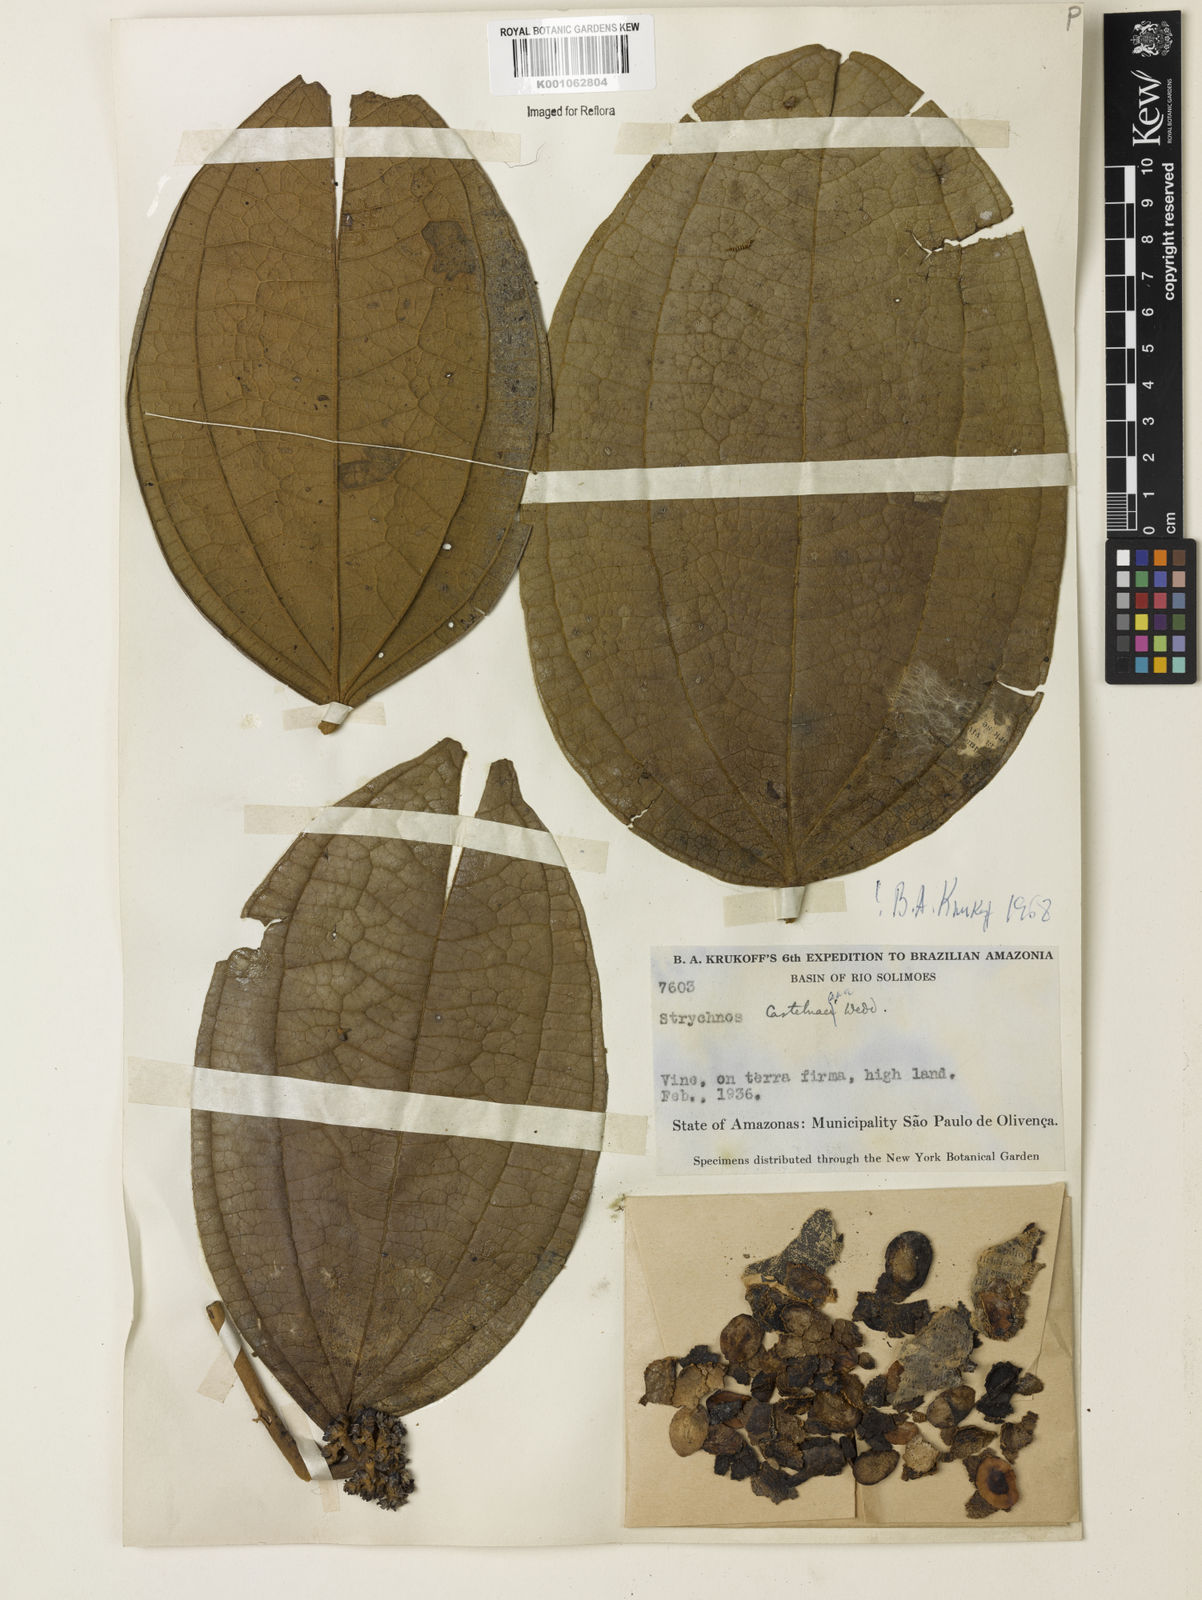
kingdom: Plantae
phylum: Tracheophyta
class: Magnoliopsida
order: Gentianales
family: Loganiaceae
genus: Strychnos
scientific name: Strychnos
